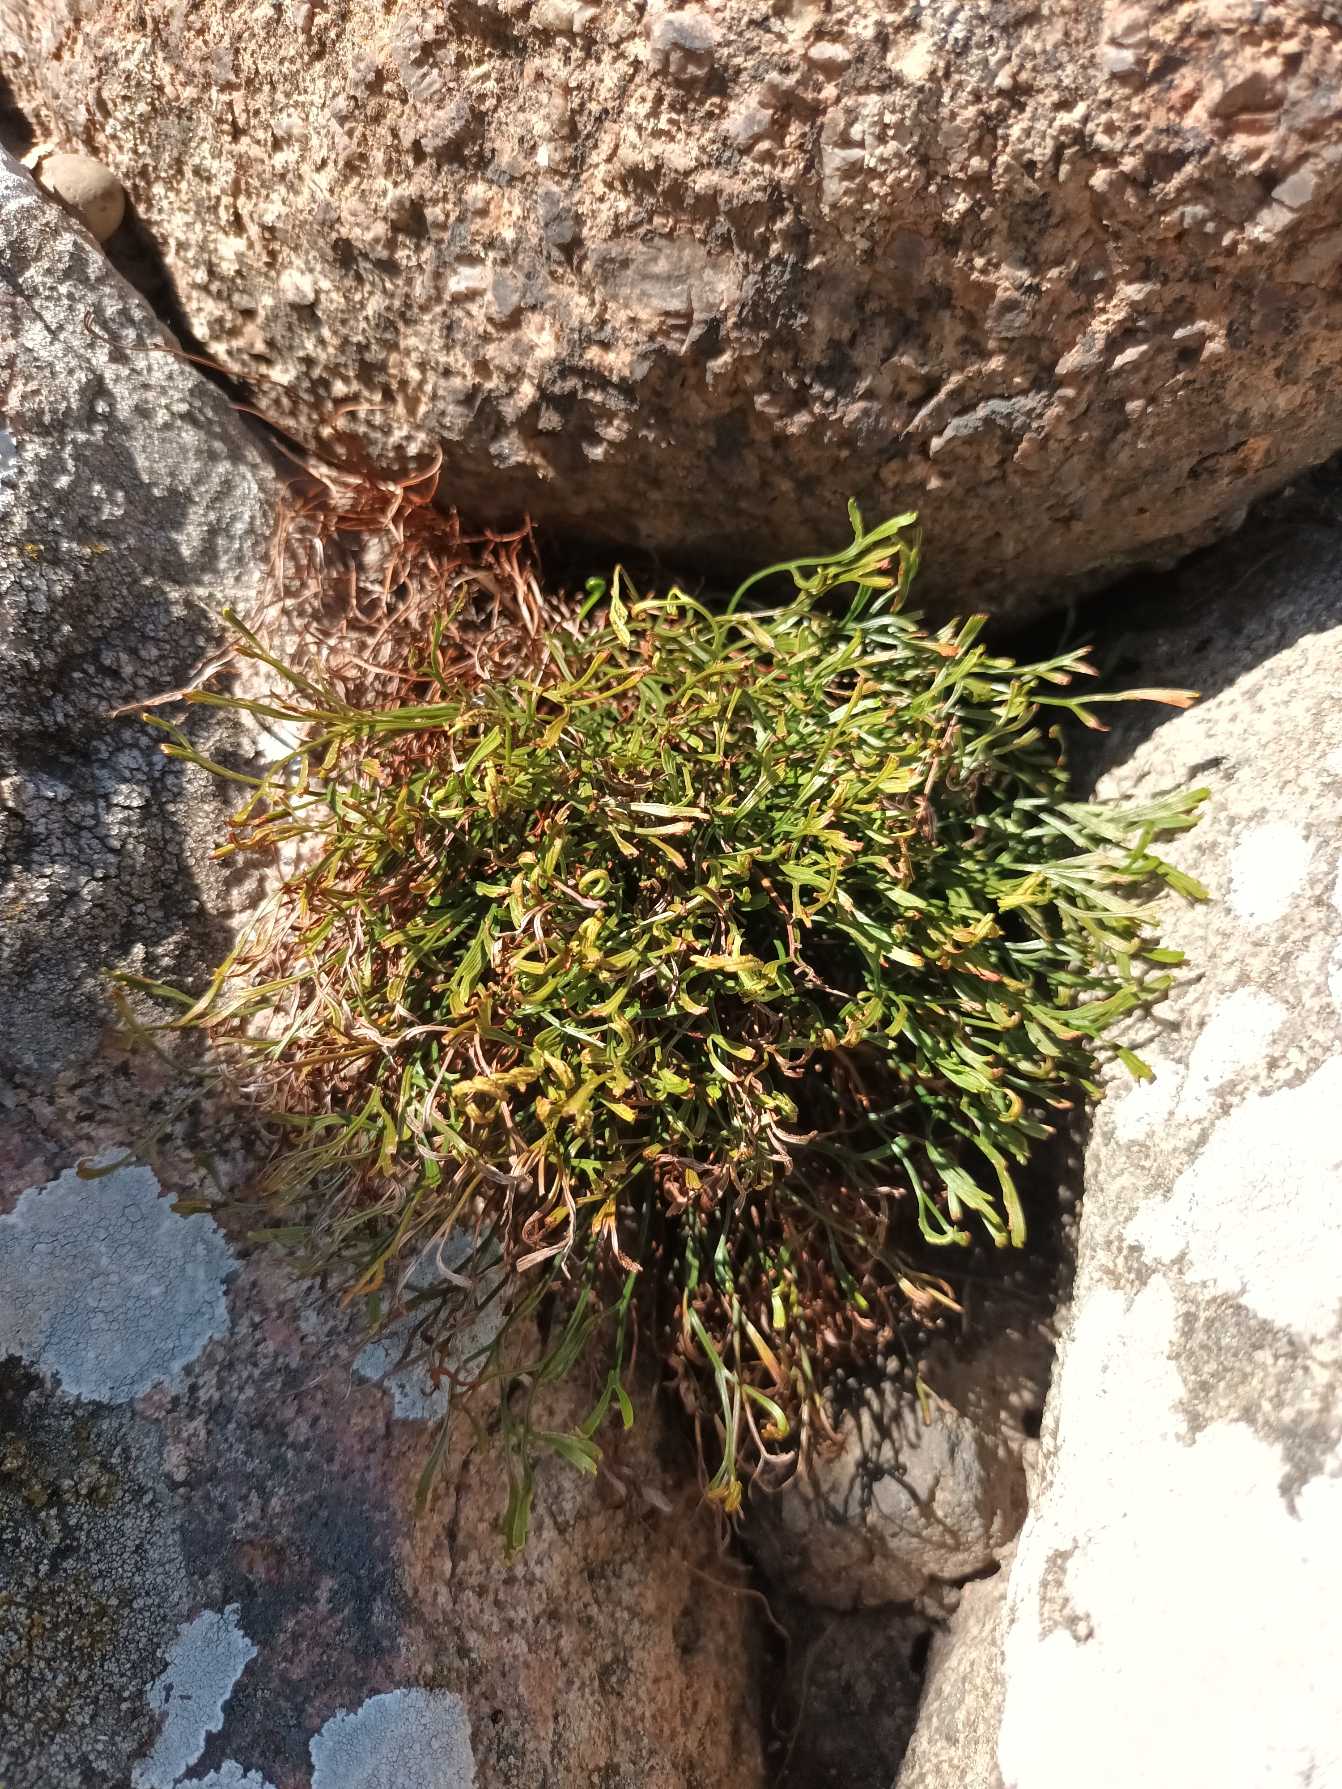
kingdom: Plantae
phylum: Tracheophyta
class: Polypodiopsida
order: Polypodiales
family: Aspleniaceae
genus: Asplenium
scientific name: Asplenium septentrionale
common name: Nordisk radeløv
